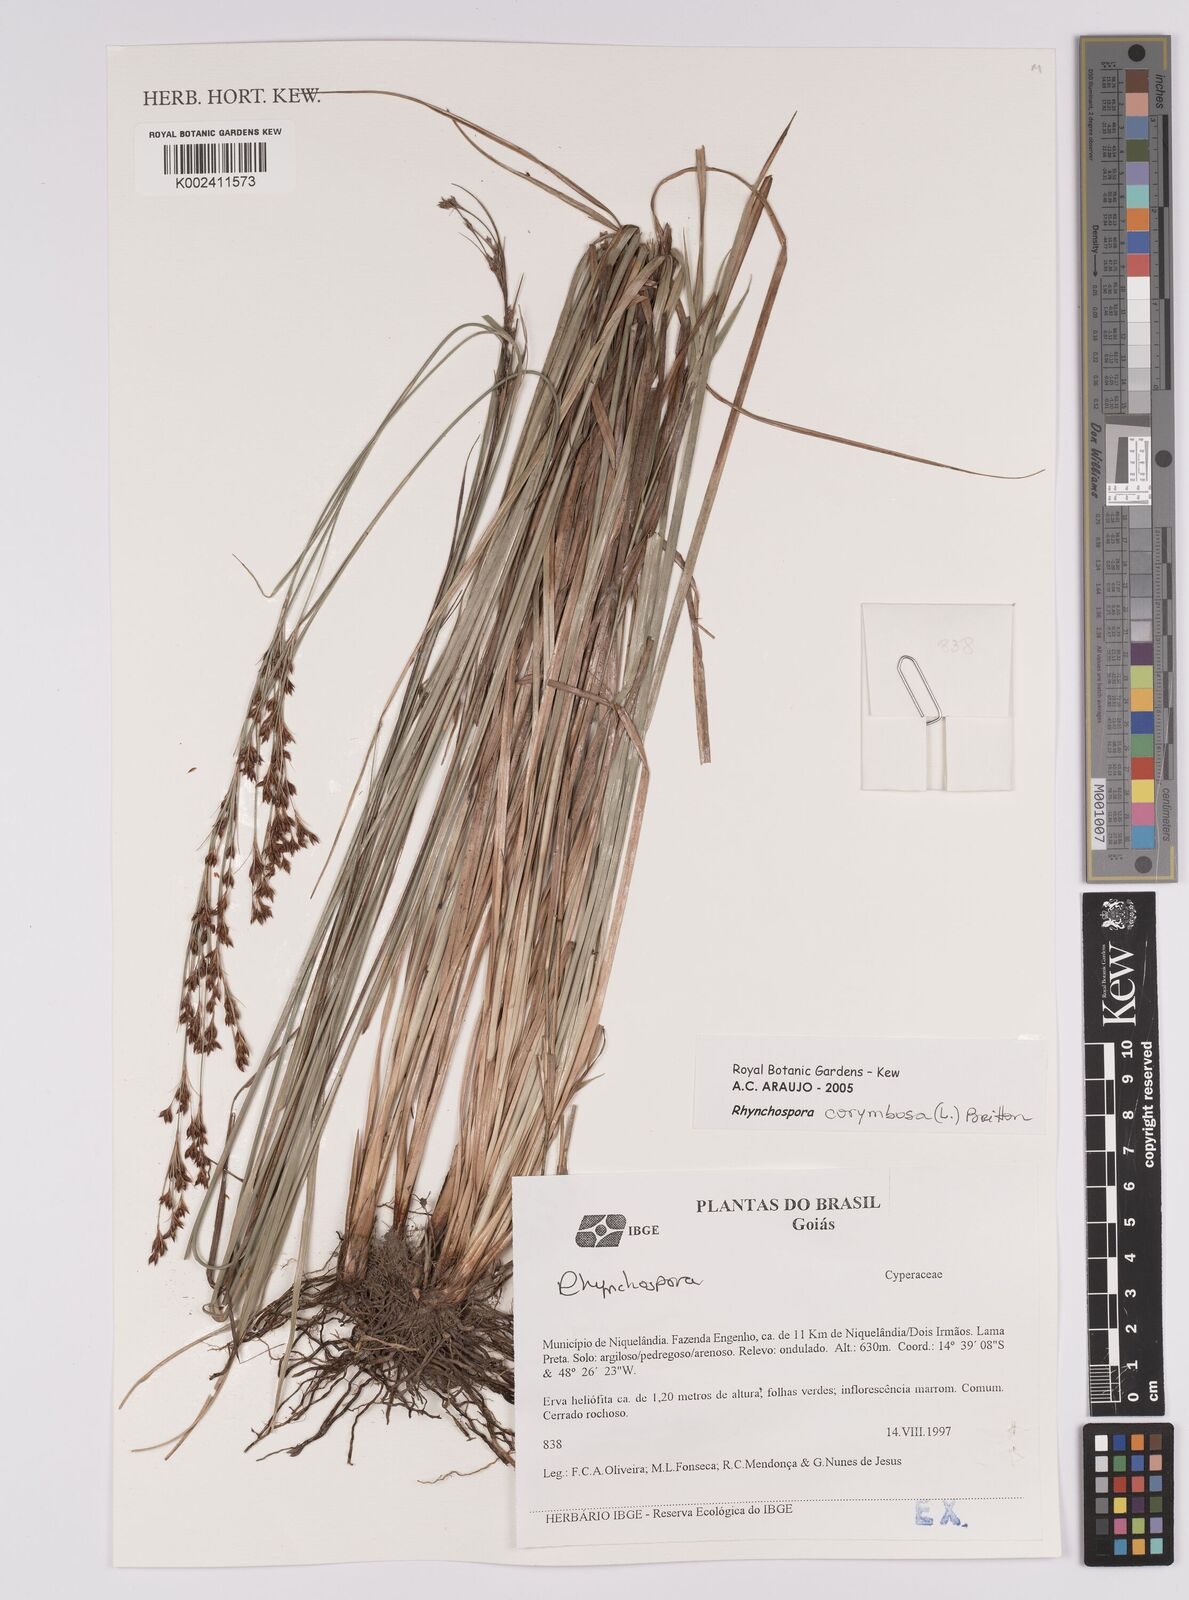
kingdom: Plantae
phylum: Tracheophyta
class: Liliopsida
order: Poales
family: Cyperaceae
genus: Rhynchospora
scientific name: Rhynchospora corymbosa
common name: Golden beak sedge
